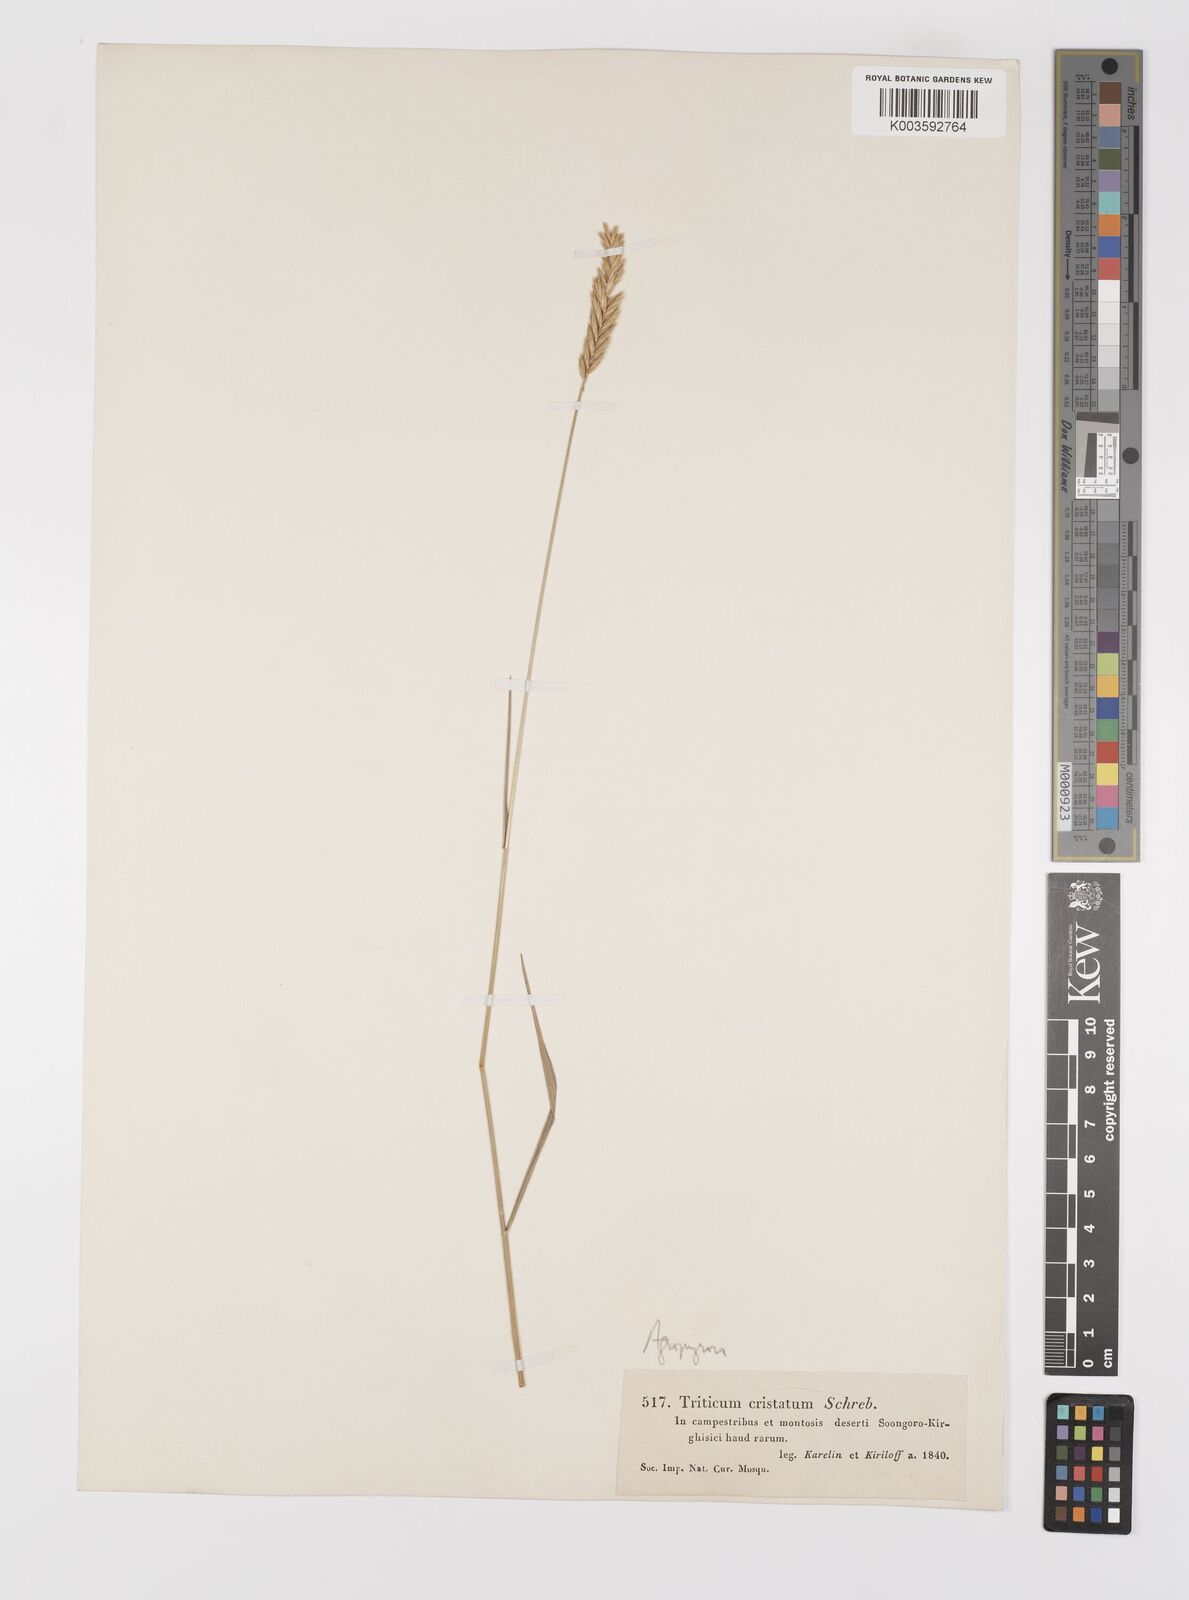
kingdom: Plantae
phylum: Tracheophyta
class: Liliopsida
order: Poales
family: Poaceae
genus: Agropyron
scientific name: Agropyron cristatum
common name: Crested wheatgrass
